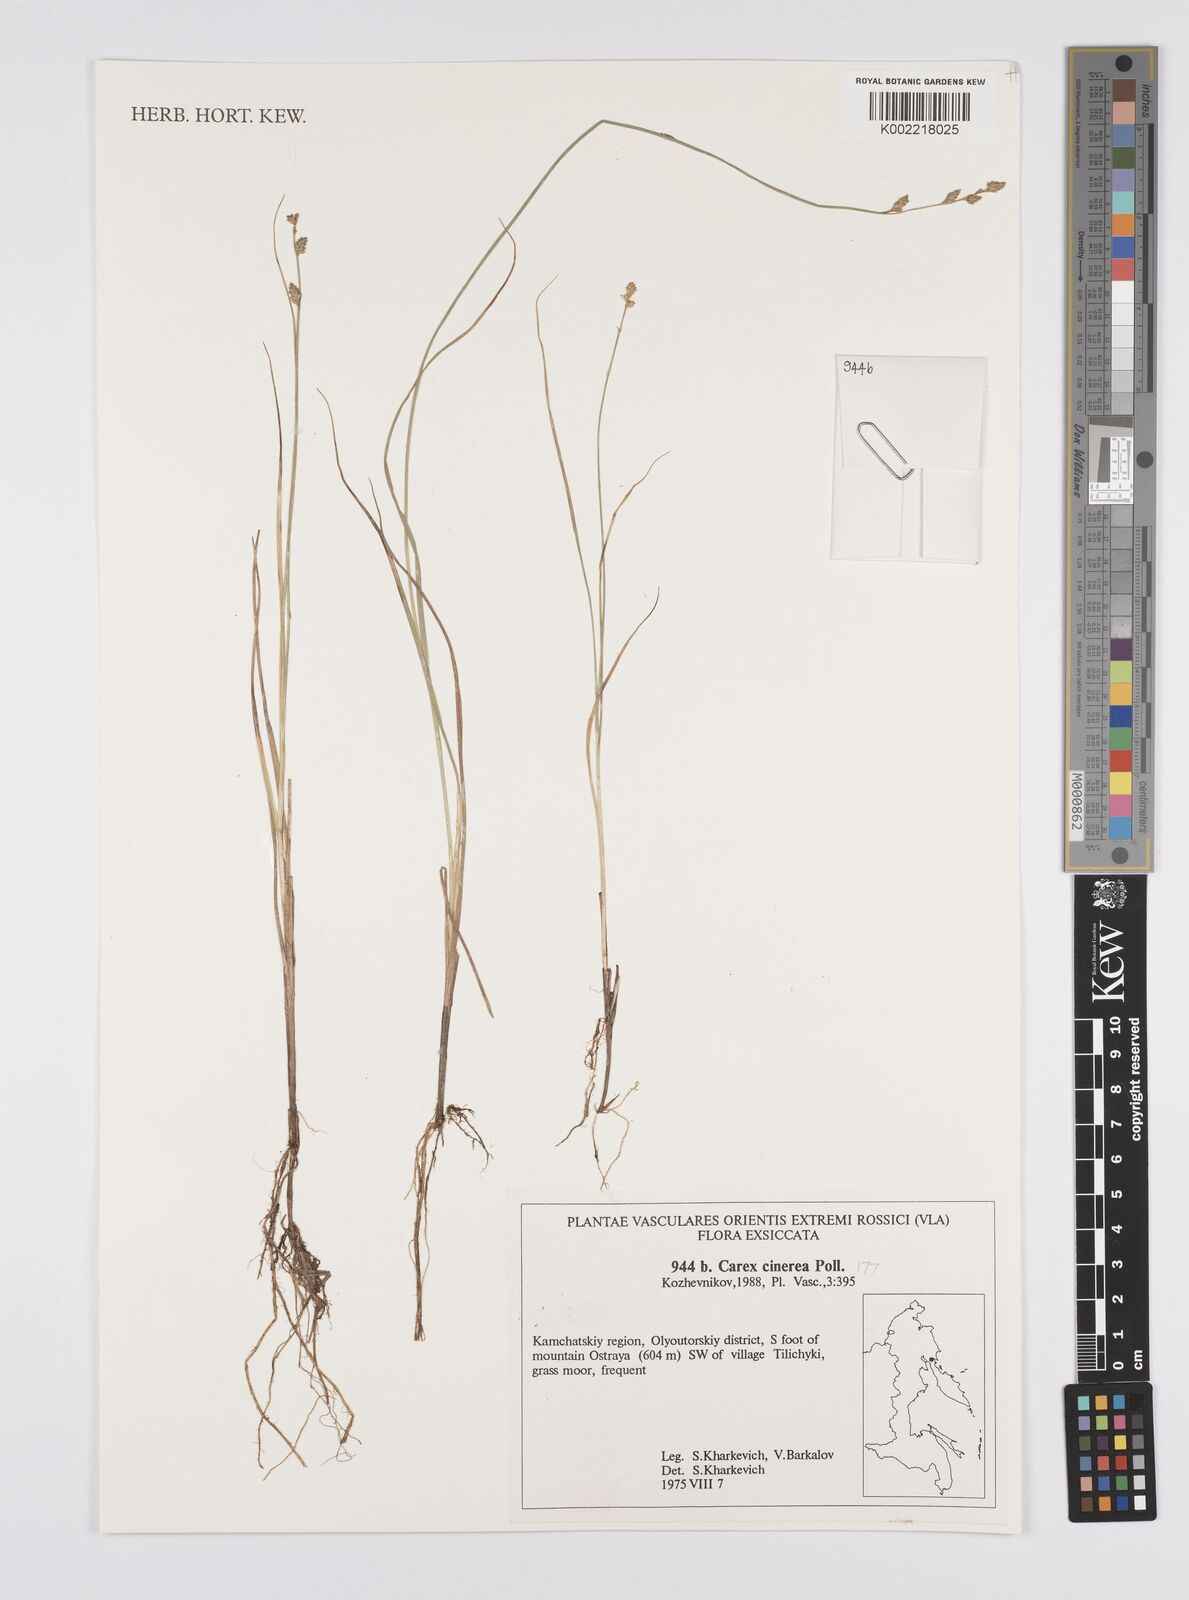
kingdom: Plantae
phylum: Tracheophyta
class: Liliopsida
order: Poales
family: Cyperaceae
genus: Carex
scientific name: Carex canescens
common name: White sedge
